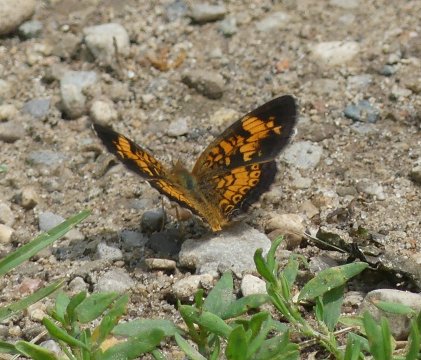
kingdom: Animalia
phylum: Arthropoda
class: Insecta
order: Lepidoptera
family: Nymphalidae
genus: Phyciodes
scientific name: Phyciodes tharos
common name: Pearl Crescent
